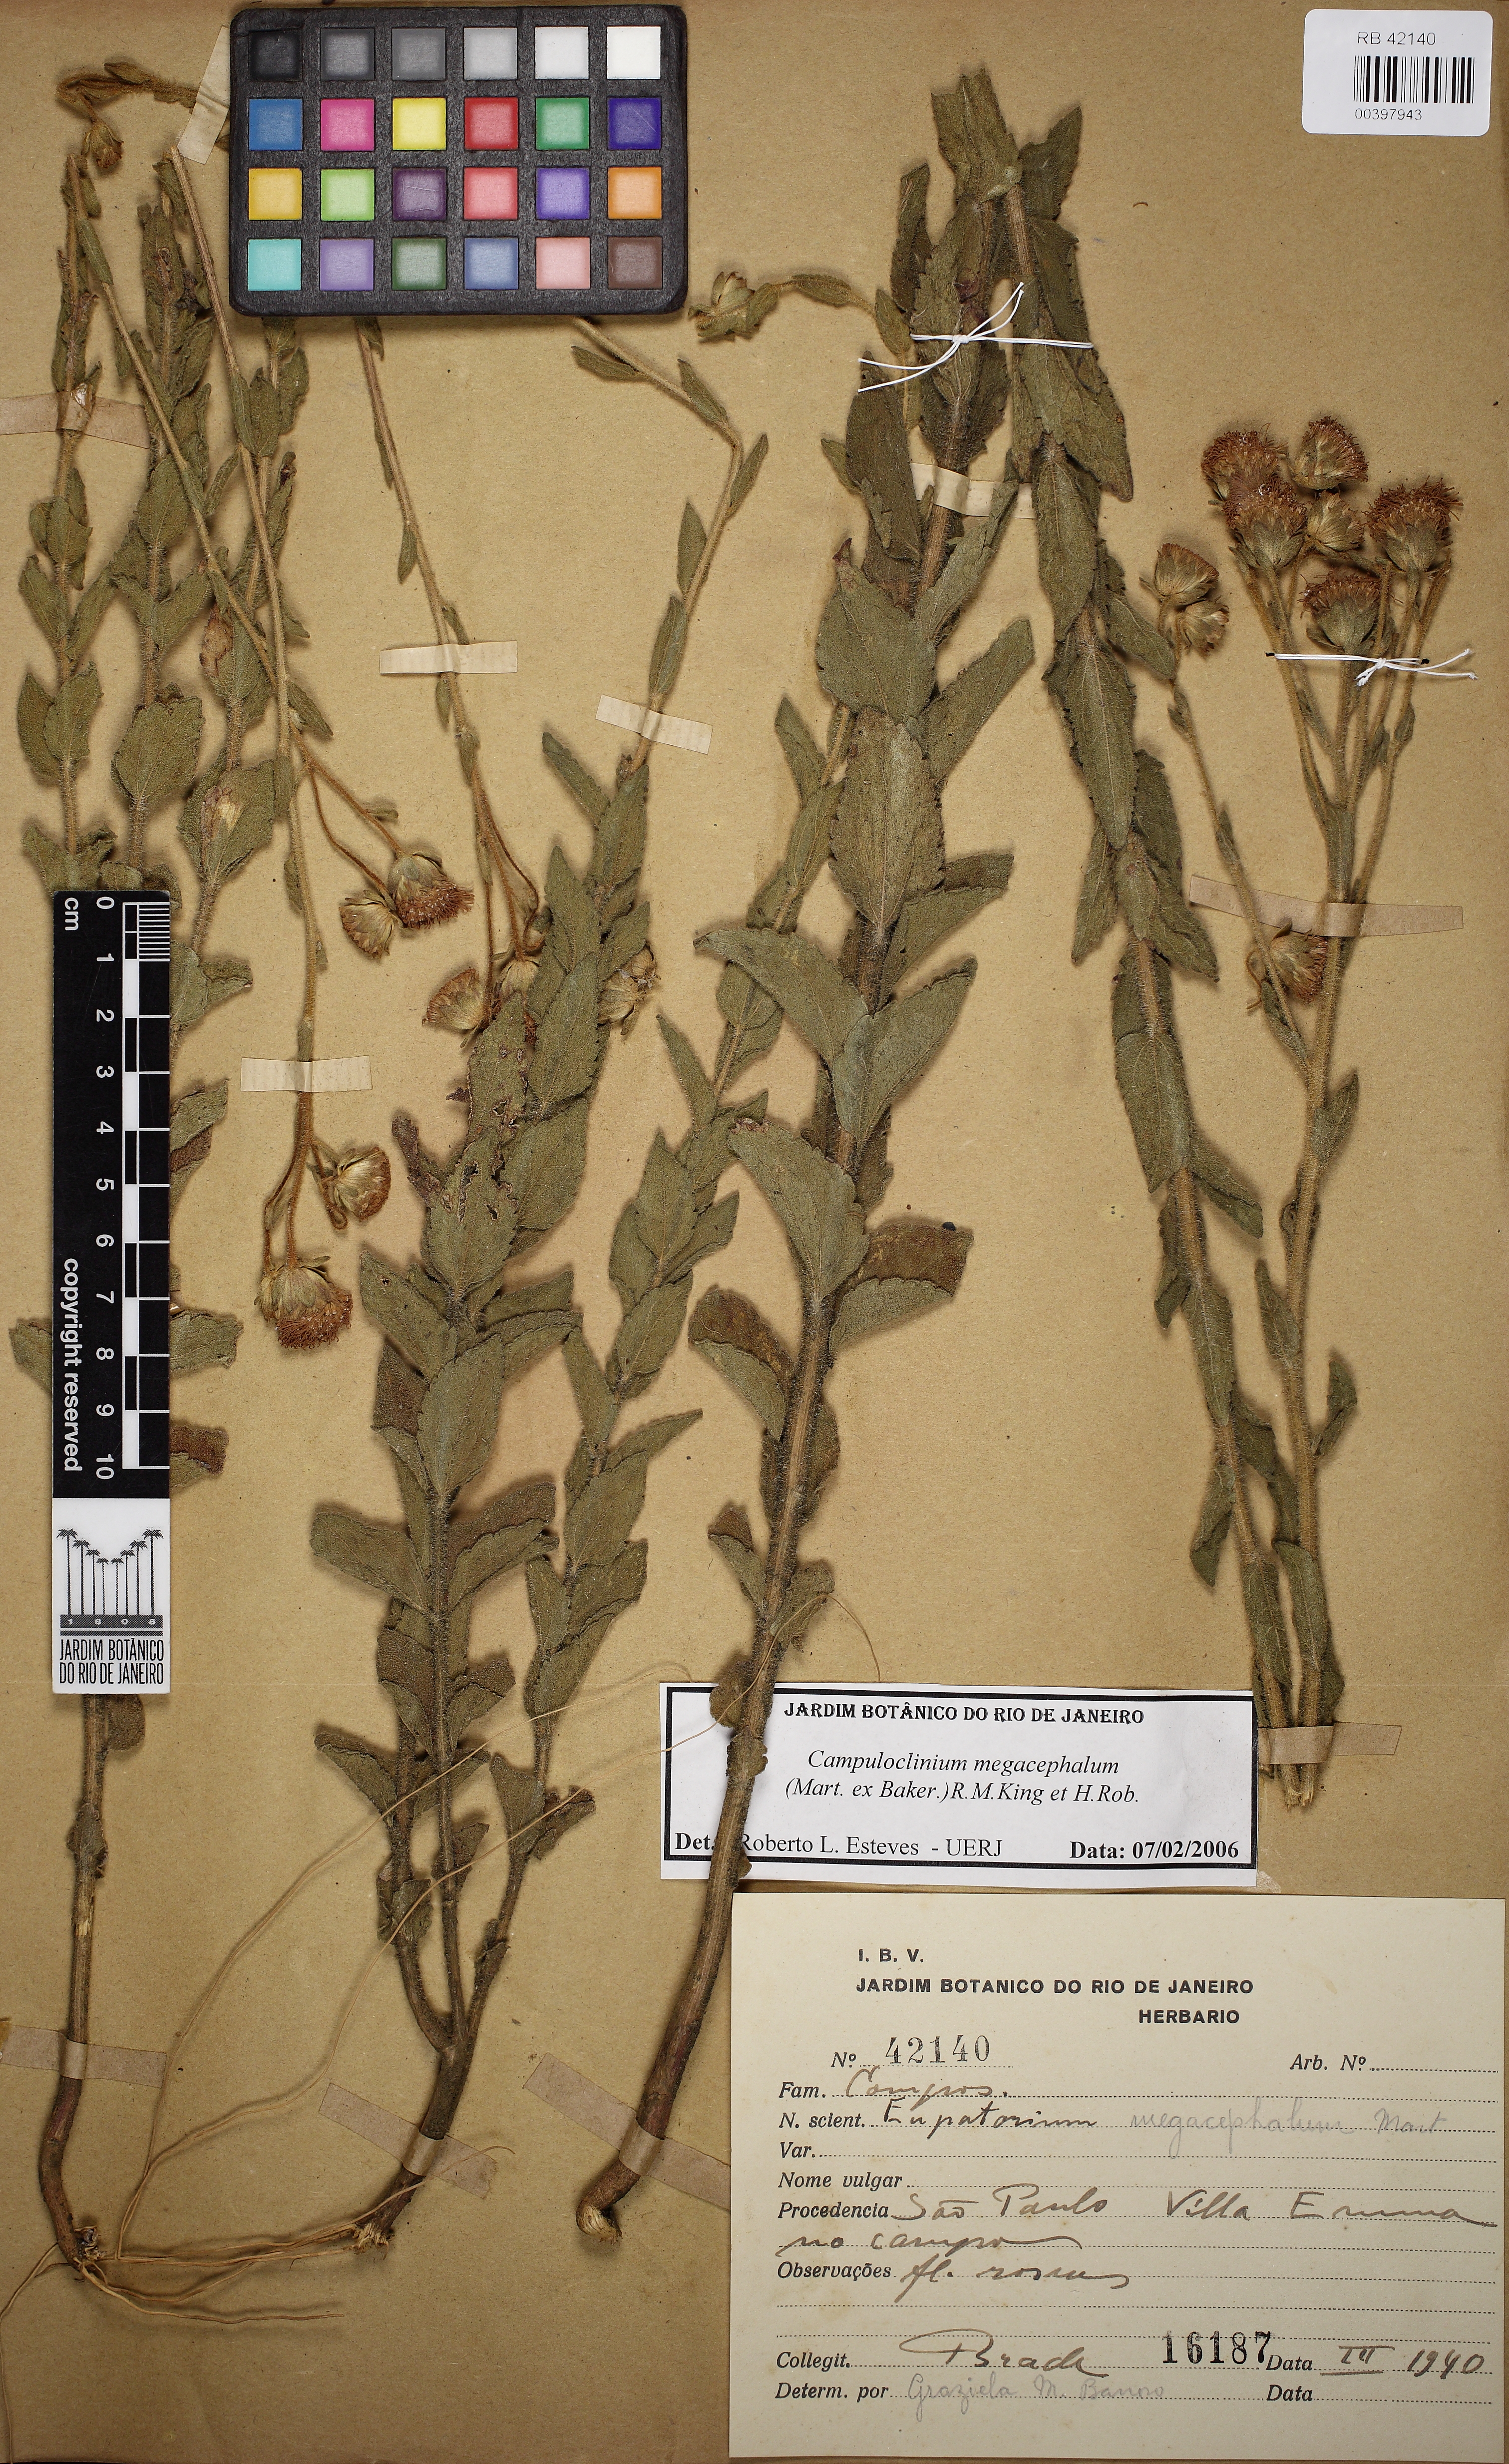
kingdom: Plantae
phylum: Tracheophyta
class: Magnoliopsida
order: Asterales
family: Asteraceae
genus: Campuloclinium
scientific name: Campuloclinium megacephalum
